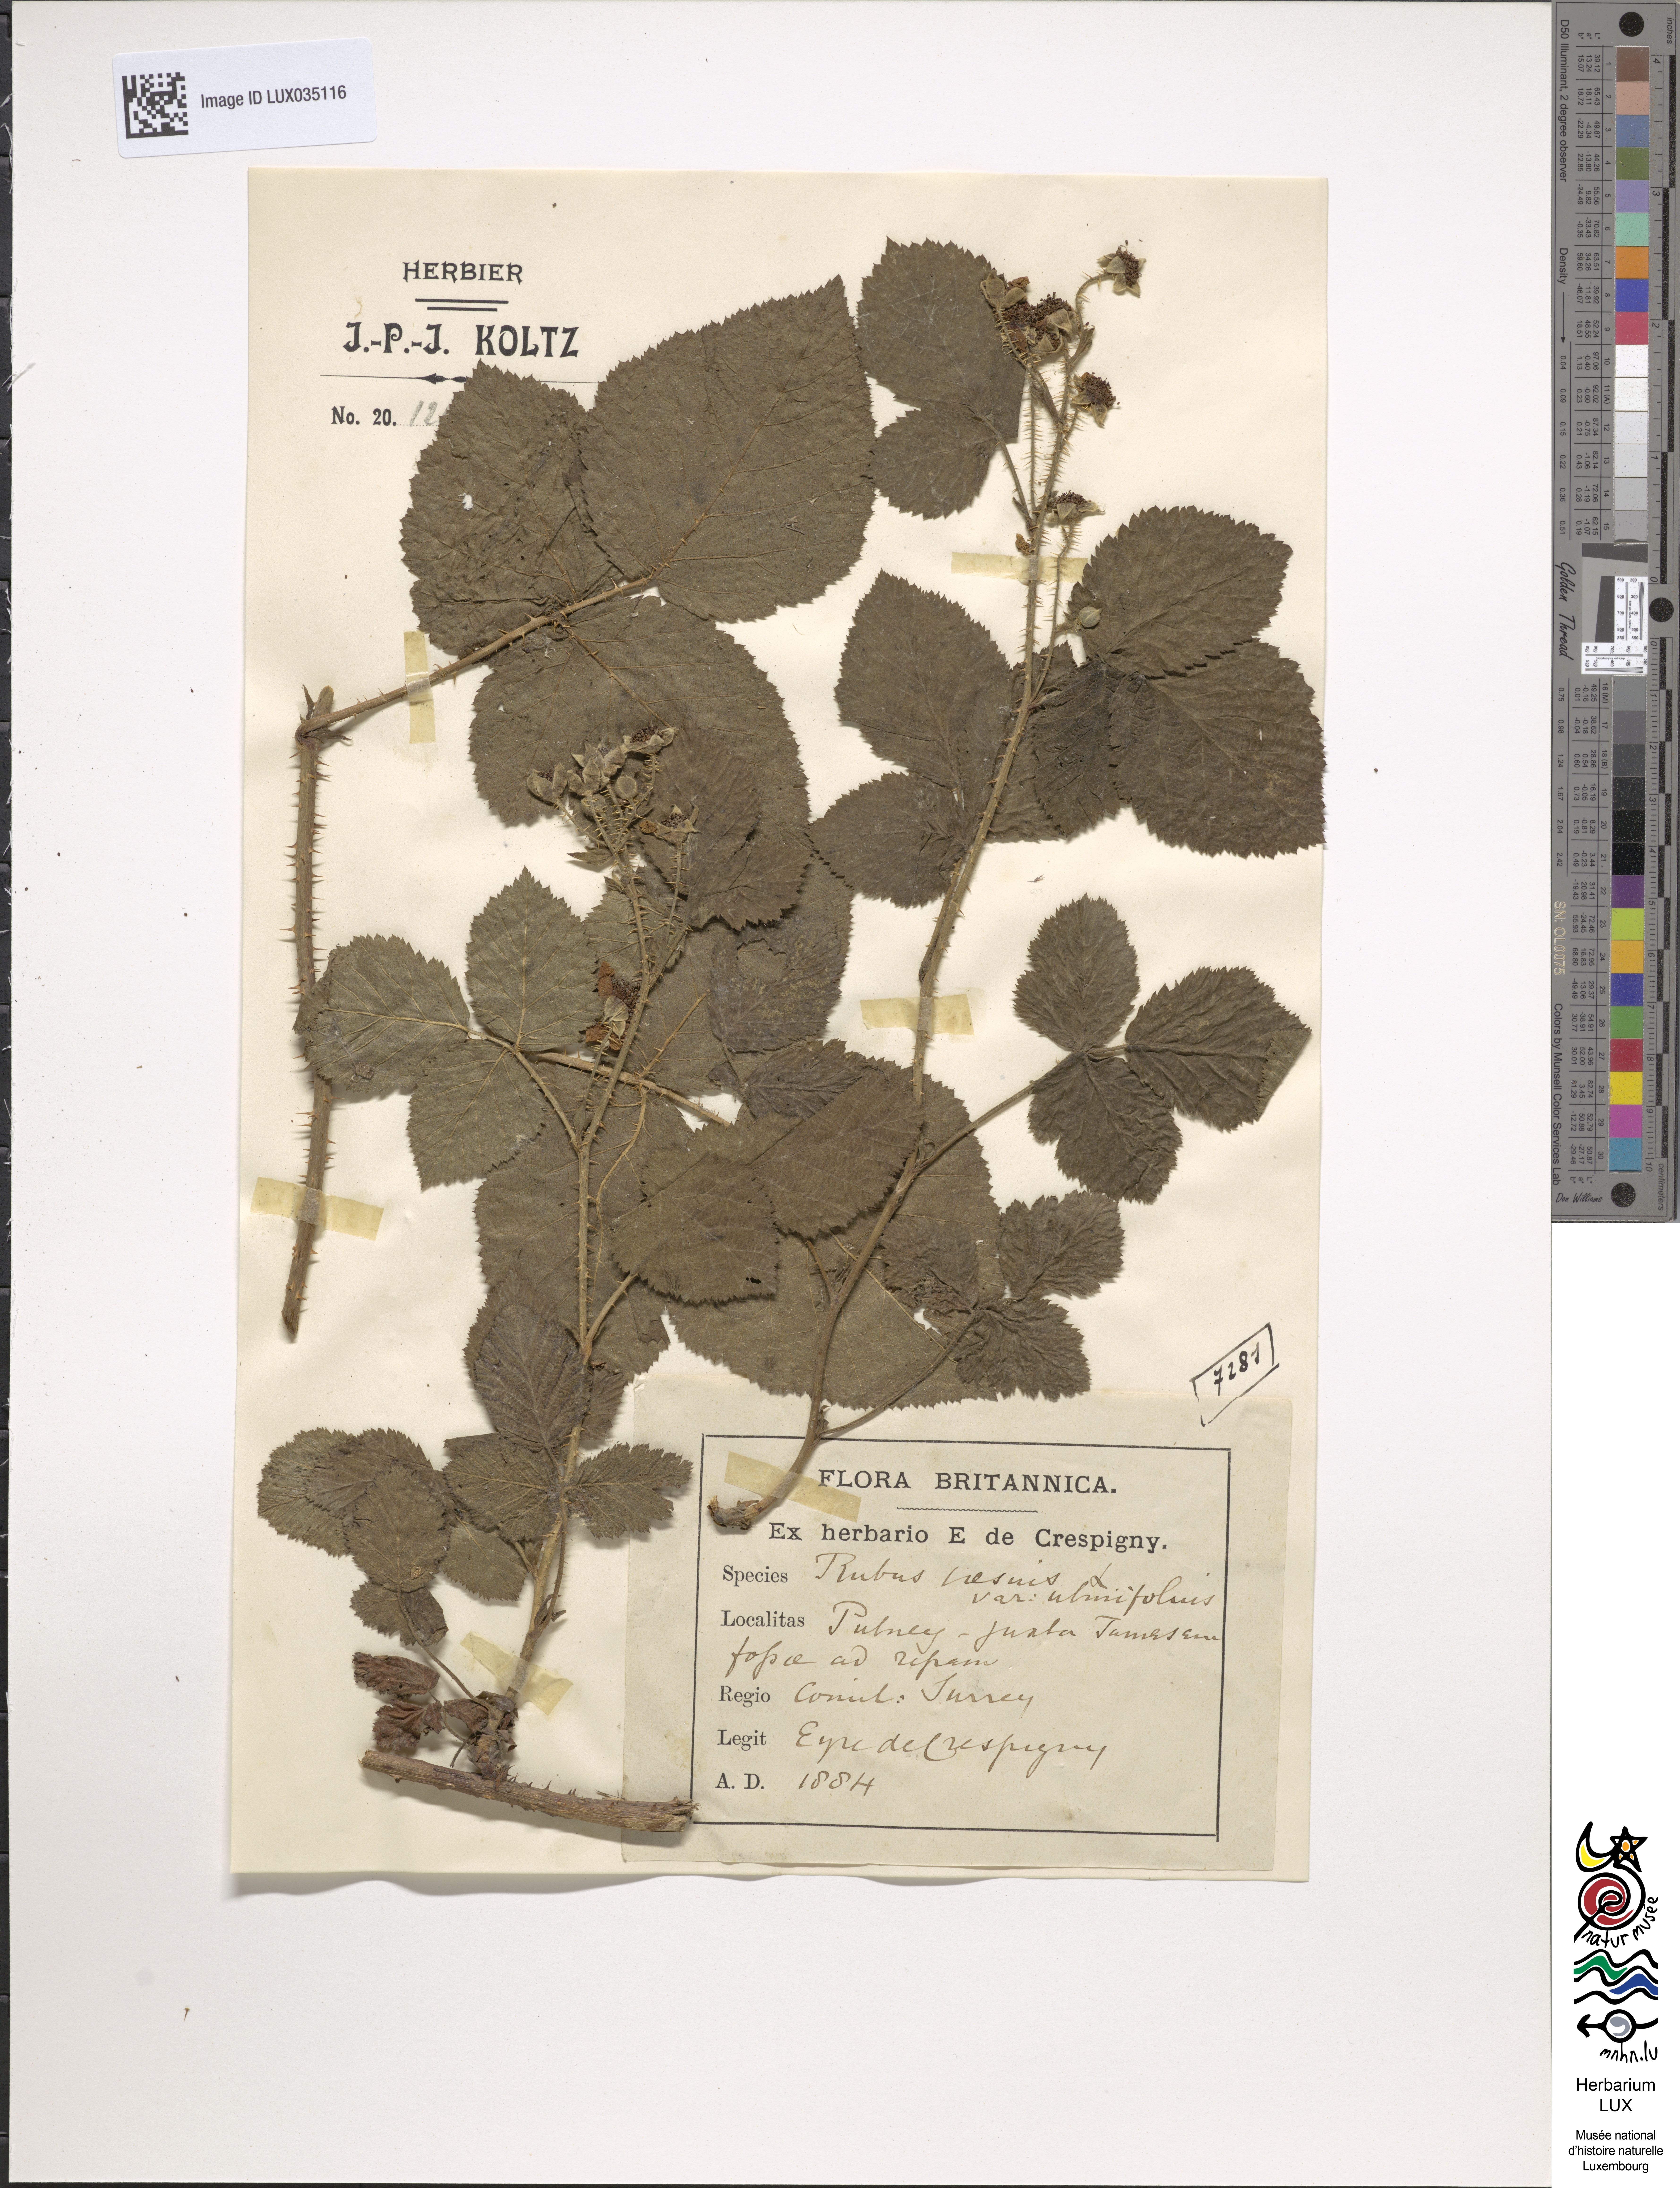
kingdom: Plantae
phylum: Tracheophyta
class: Magnoliopsida
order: Rosales
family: Rosaceae
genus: Rubus
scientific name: Rubus caesius
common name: Dewberry
